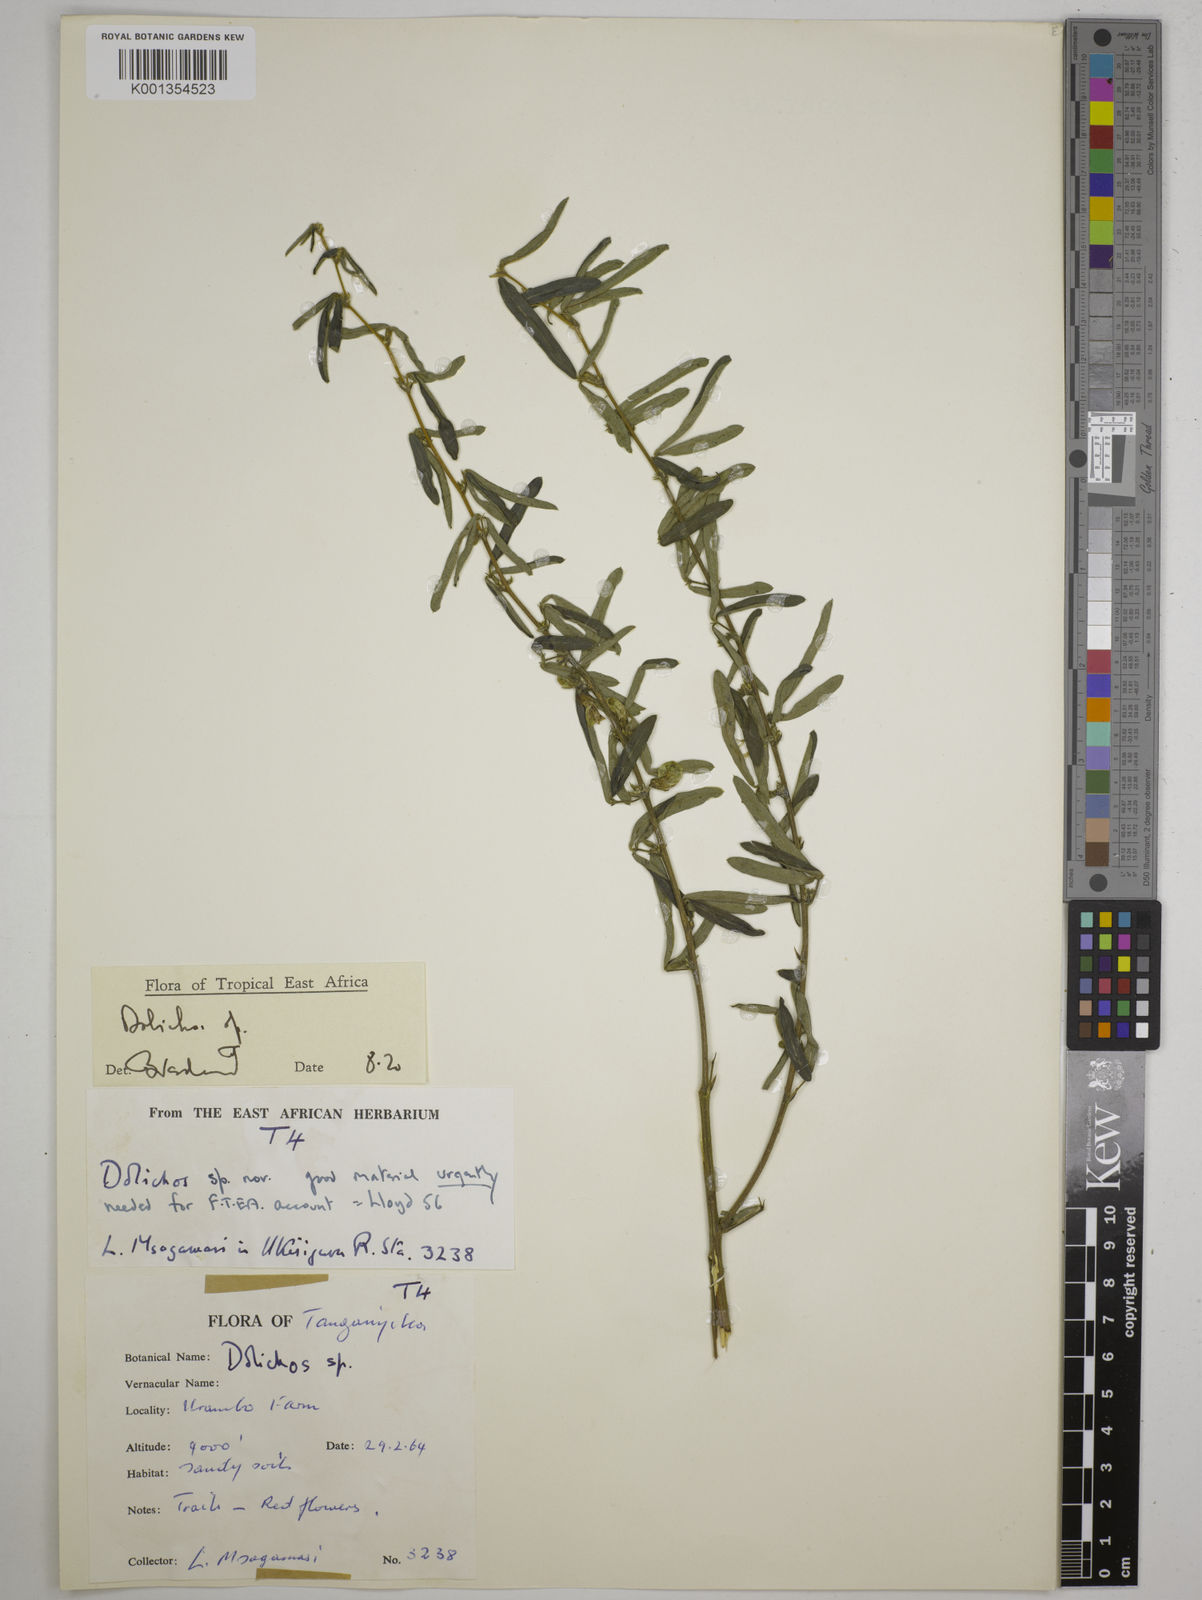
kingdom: Plantae
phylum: Tracheophyta
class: Magnoliopsida
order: Fabales
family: Fabaceae
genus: Dolichos
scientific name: Dolichos
